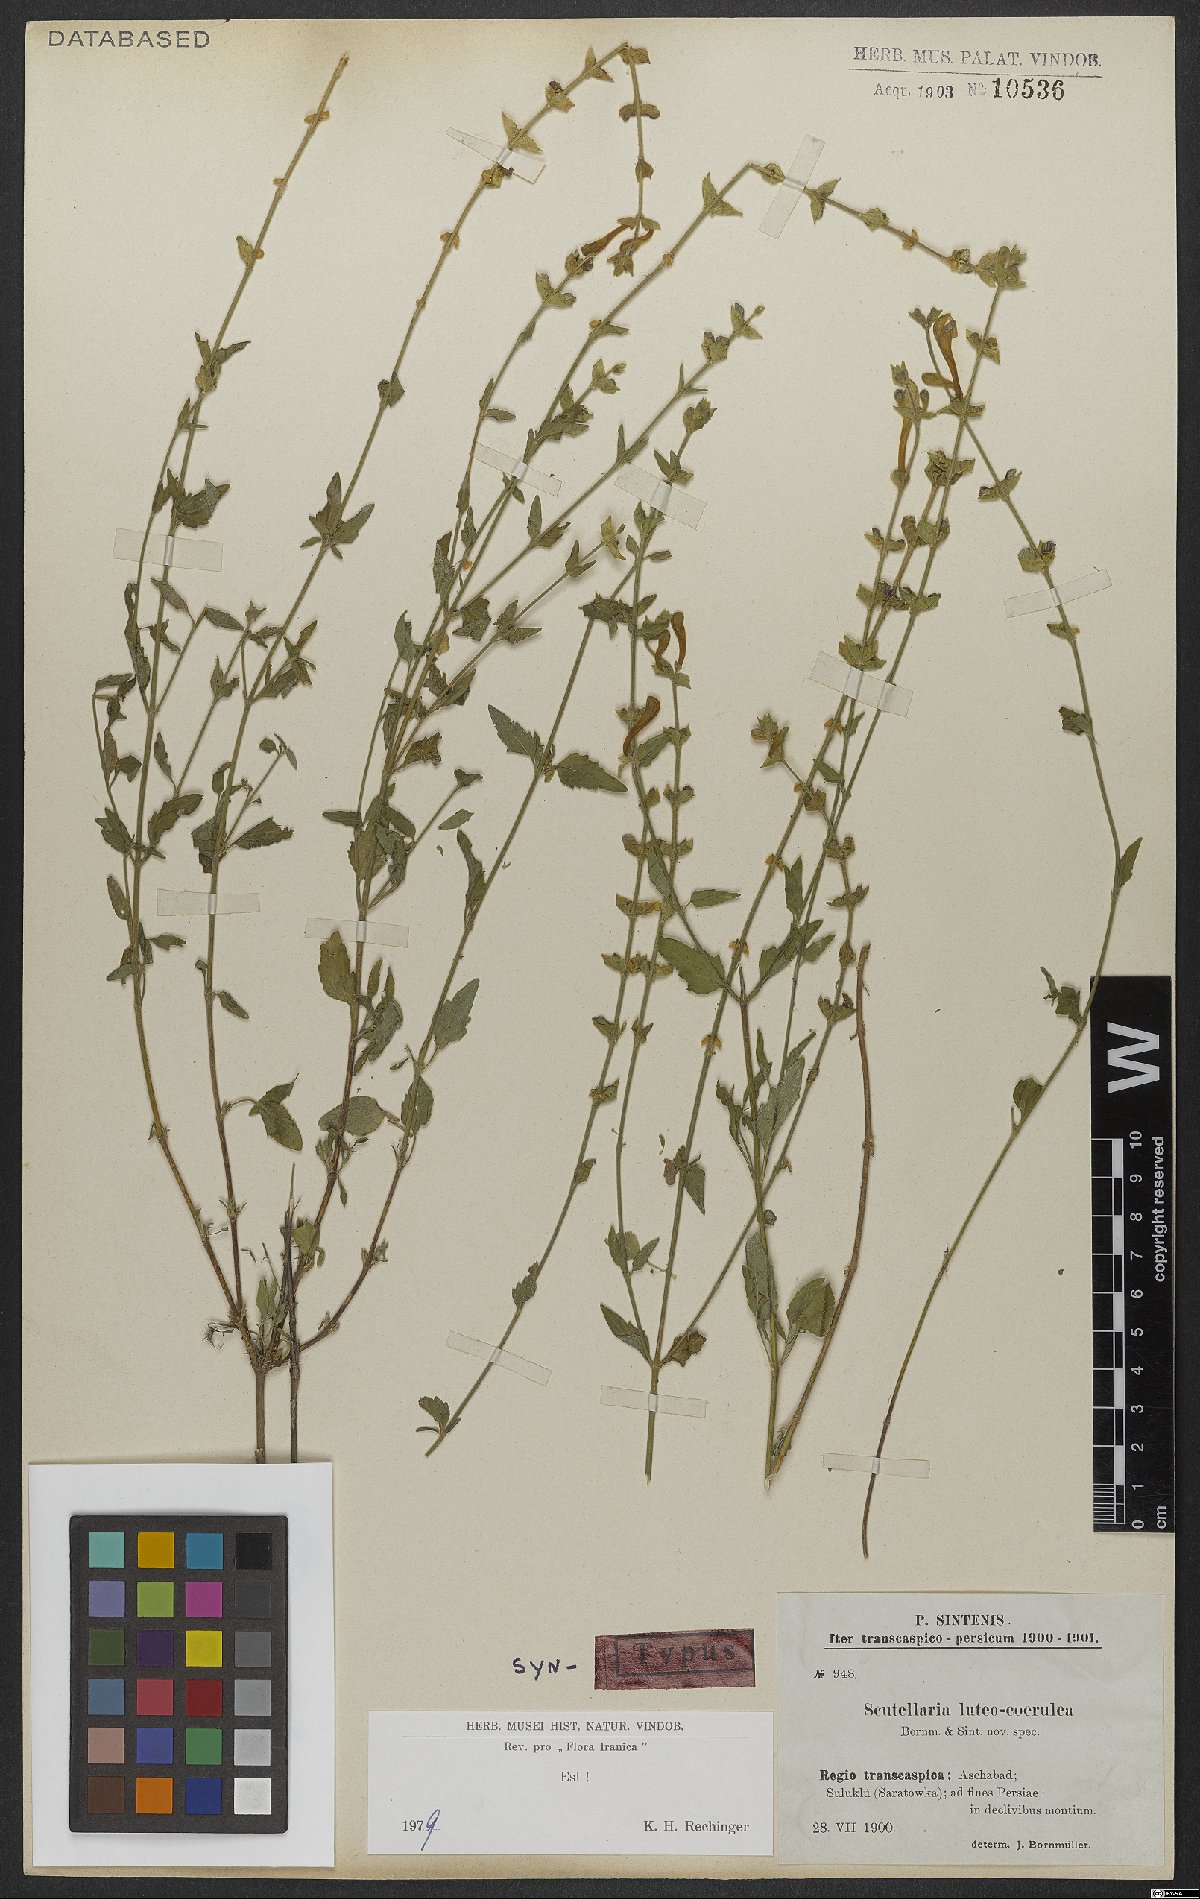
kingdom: Plantae
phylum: Tracheophyta
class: Magnoliopsida
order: Lamiales
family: Lamiaceae
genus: Scutellaria
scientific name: Scutellaria luteocaerulea
